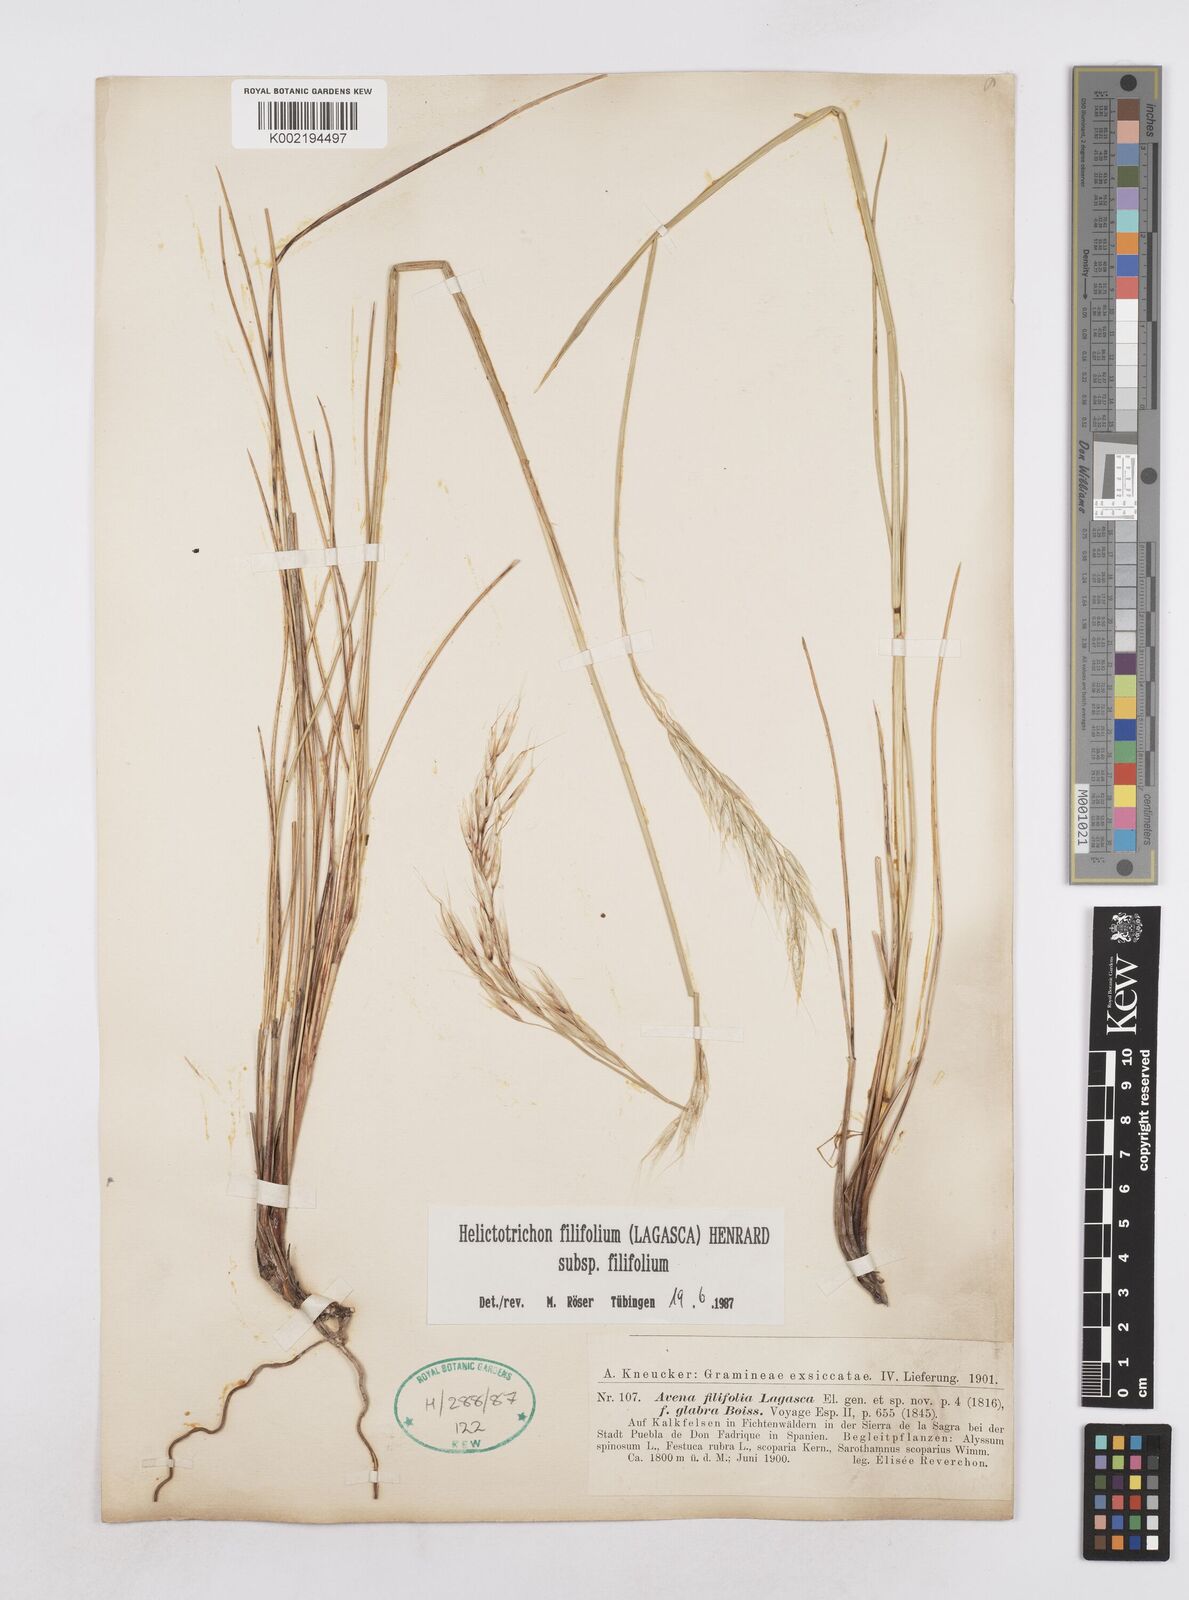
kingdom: Plantae
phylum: Tracheophyta
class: Liliopsida
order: Poales
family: Poaceae
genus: Helictotrichon
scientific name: Helictotrichon filifolium
